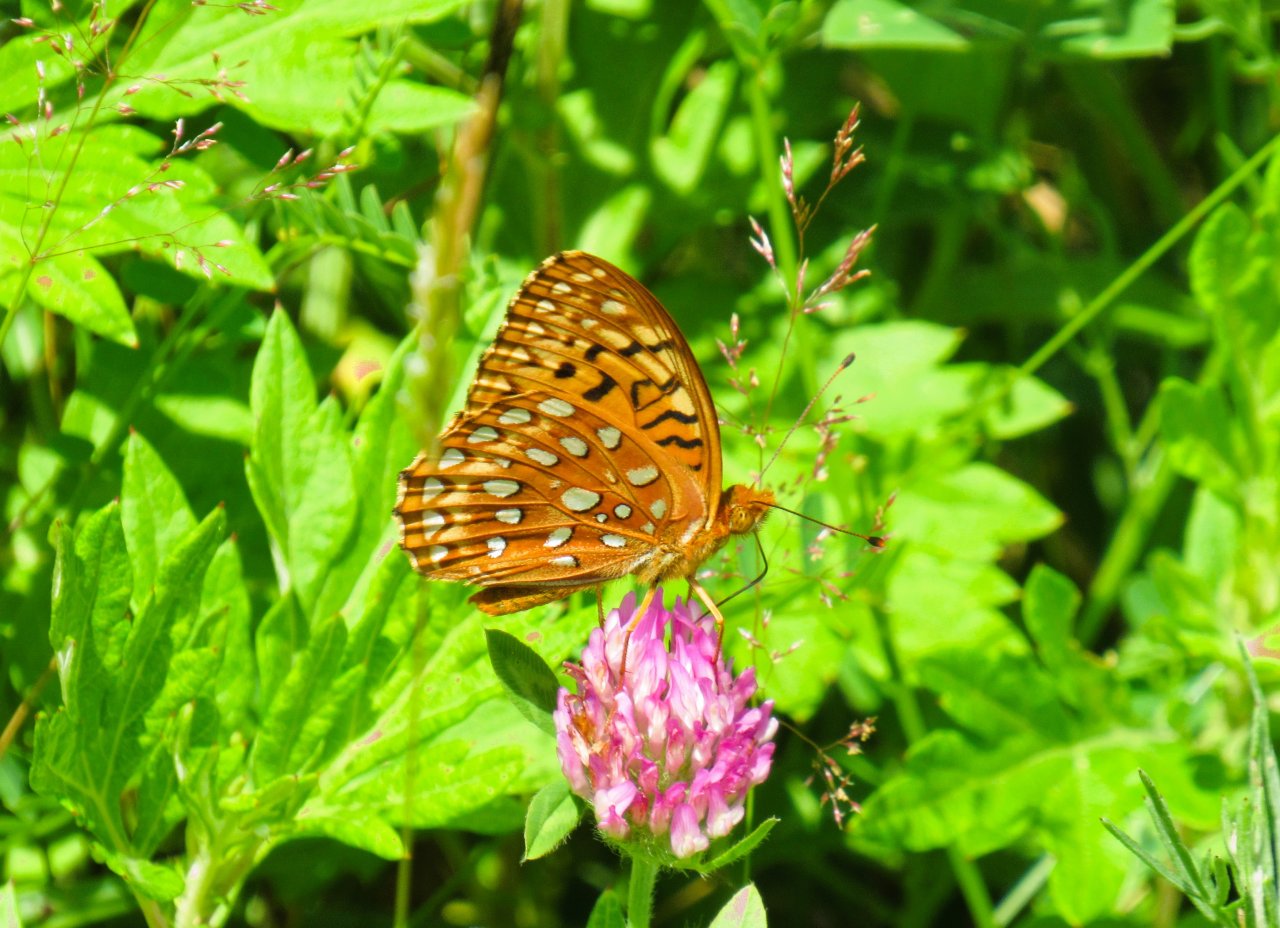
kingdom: Animalia
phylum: Arthropoda
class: Insecta
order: Lepidoptera
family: Nymphalidae
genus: Speyeria
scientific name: Speyeria aphrodite
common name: Aphrodite Fritillary
